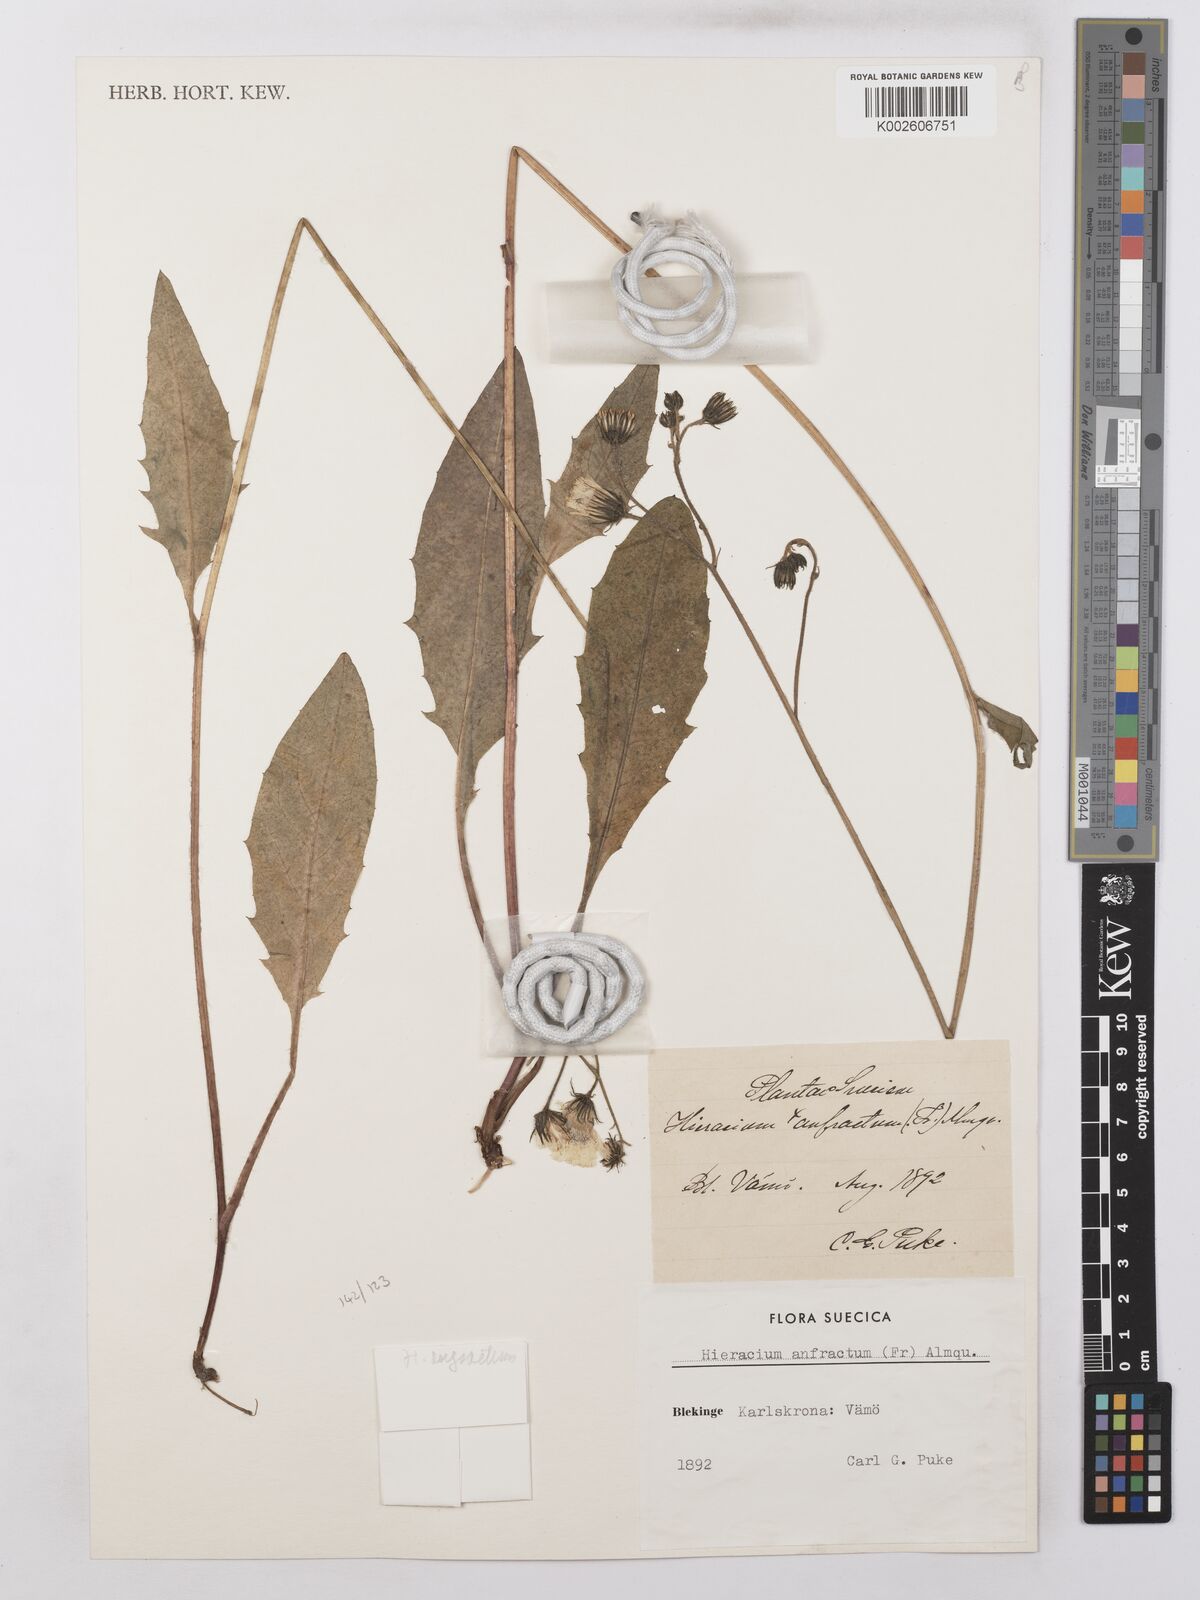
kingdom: Plantae
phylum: Tracheophyta
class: Magnoliopsida
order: Asterales
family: Asteraceae
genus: Hieracium
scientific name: Hieracium lachenalii
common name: Common hawkweed
